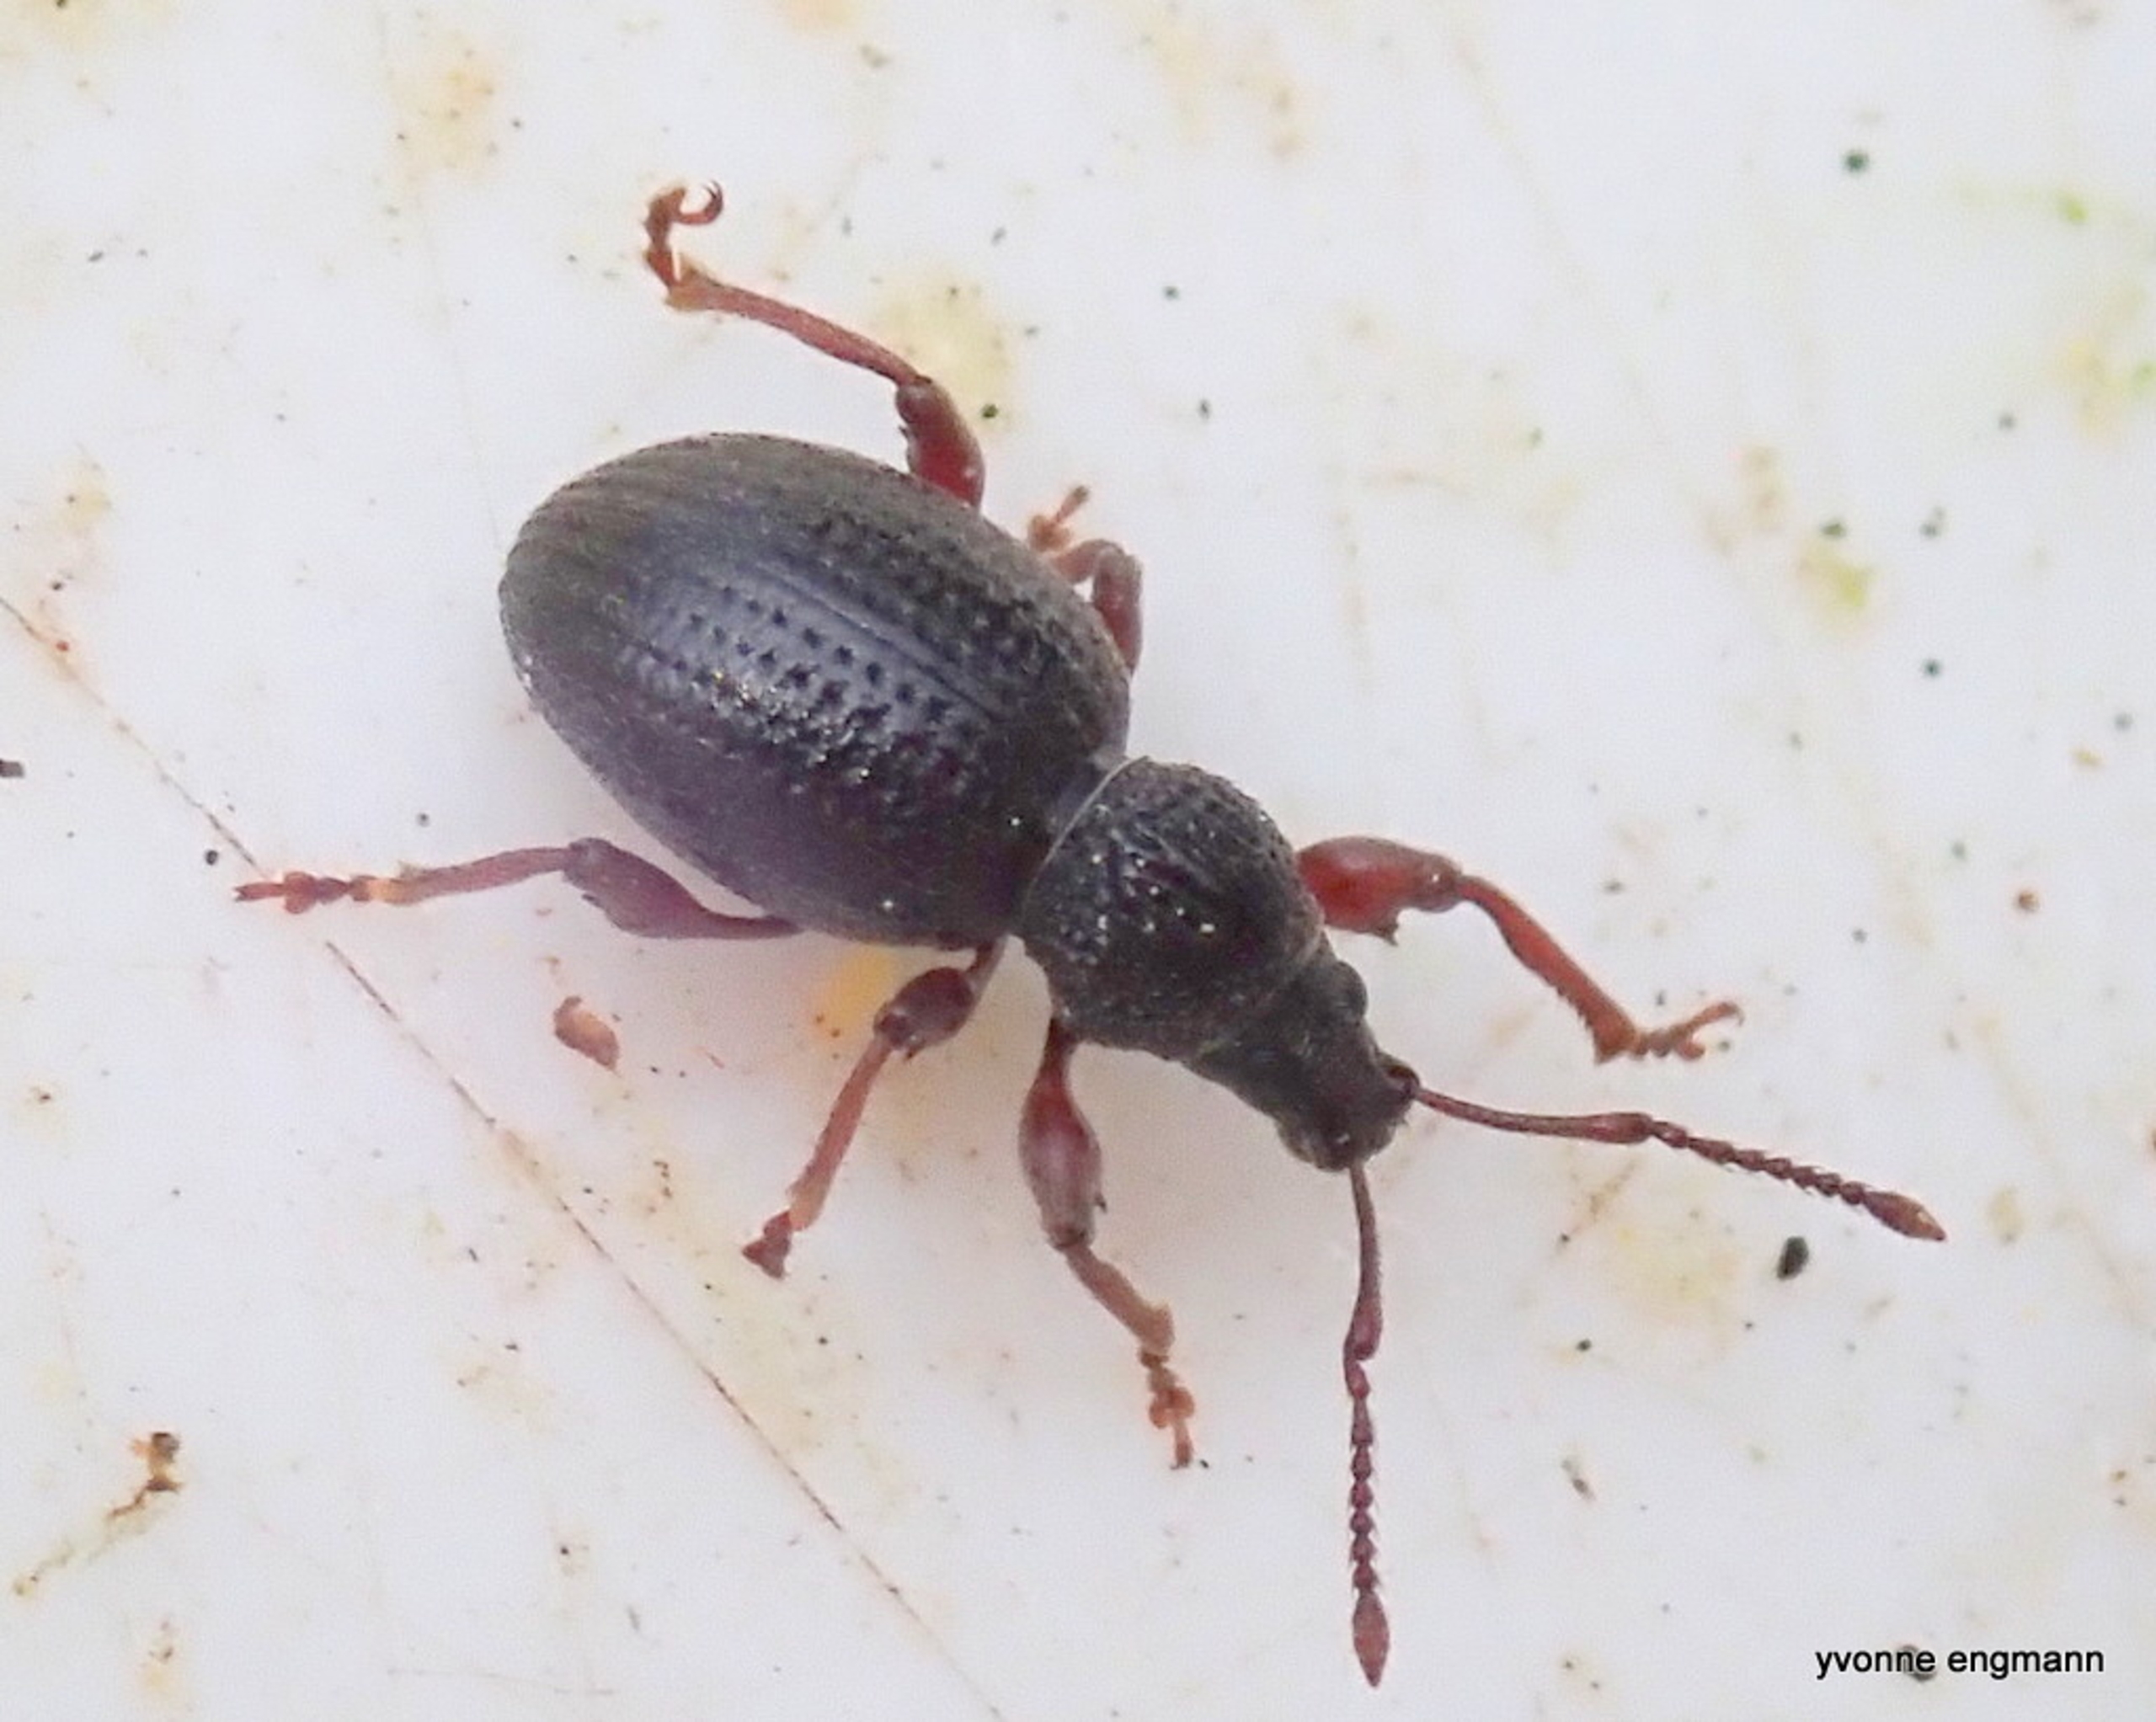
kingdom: Animalia
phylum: Arthropoda
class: Insecta
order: Coleoptera
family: Curculionidae
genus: Otiorhynchus
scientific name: Otiorhynchus ovatus
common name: Jordbærøresnudebille
